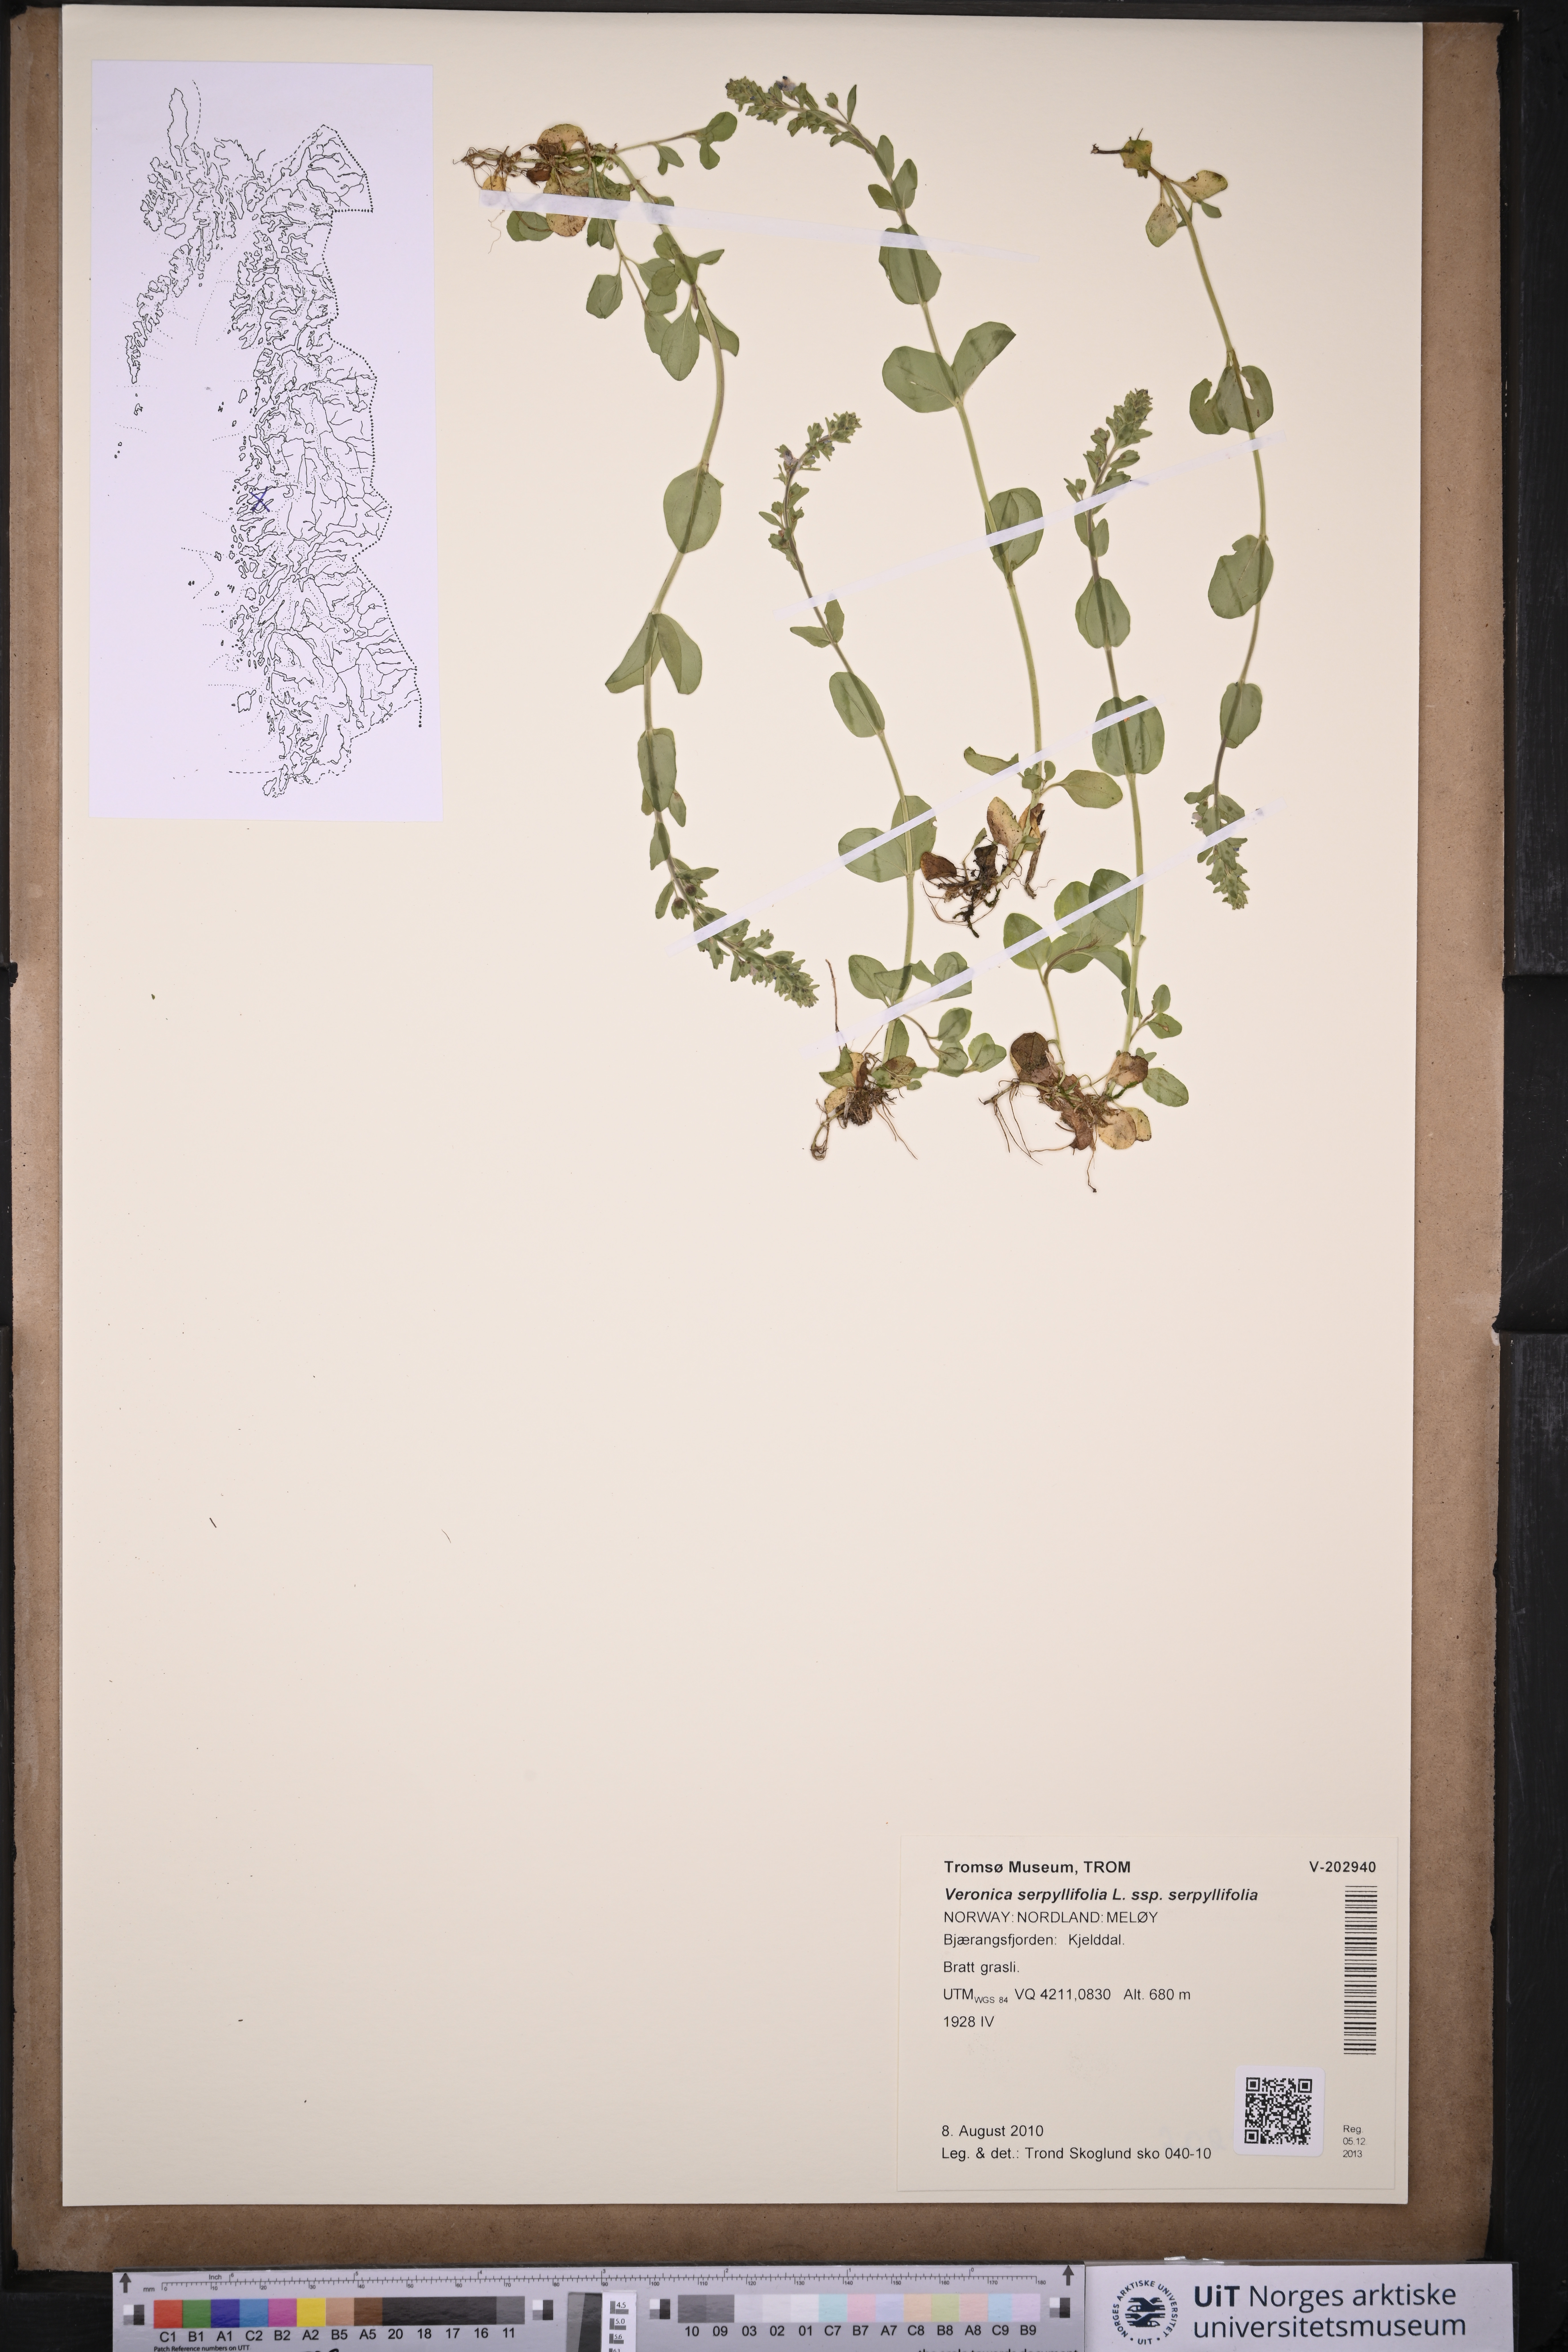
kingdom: Plantae
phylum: Tracheophyta
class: Magnoliopsida
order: Lamiales
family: Plantaginaceae
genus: Veronica
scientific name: Veronica serpyllifolia
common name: Thyme-leaved speedwell
